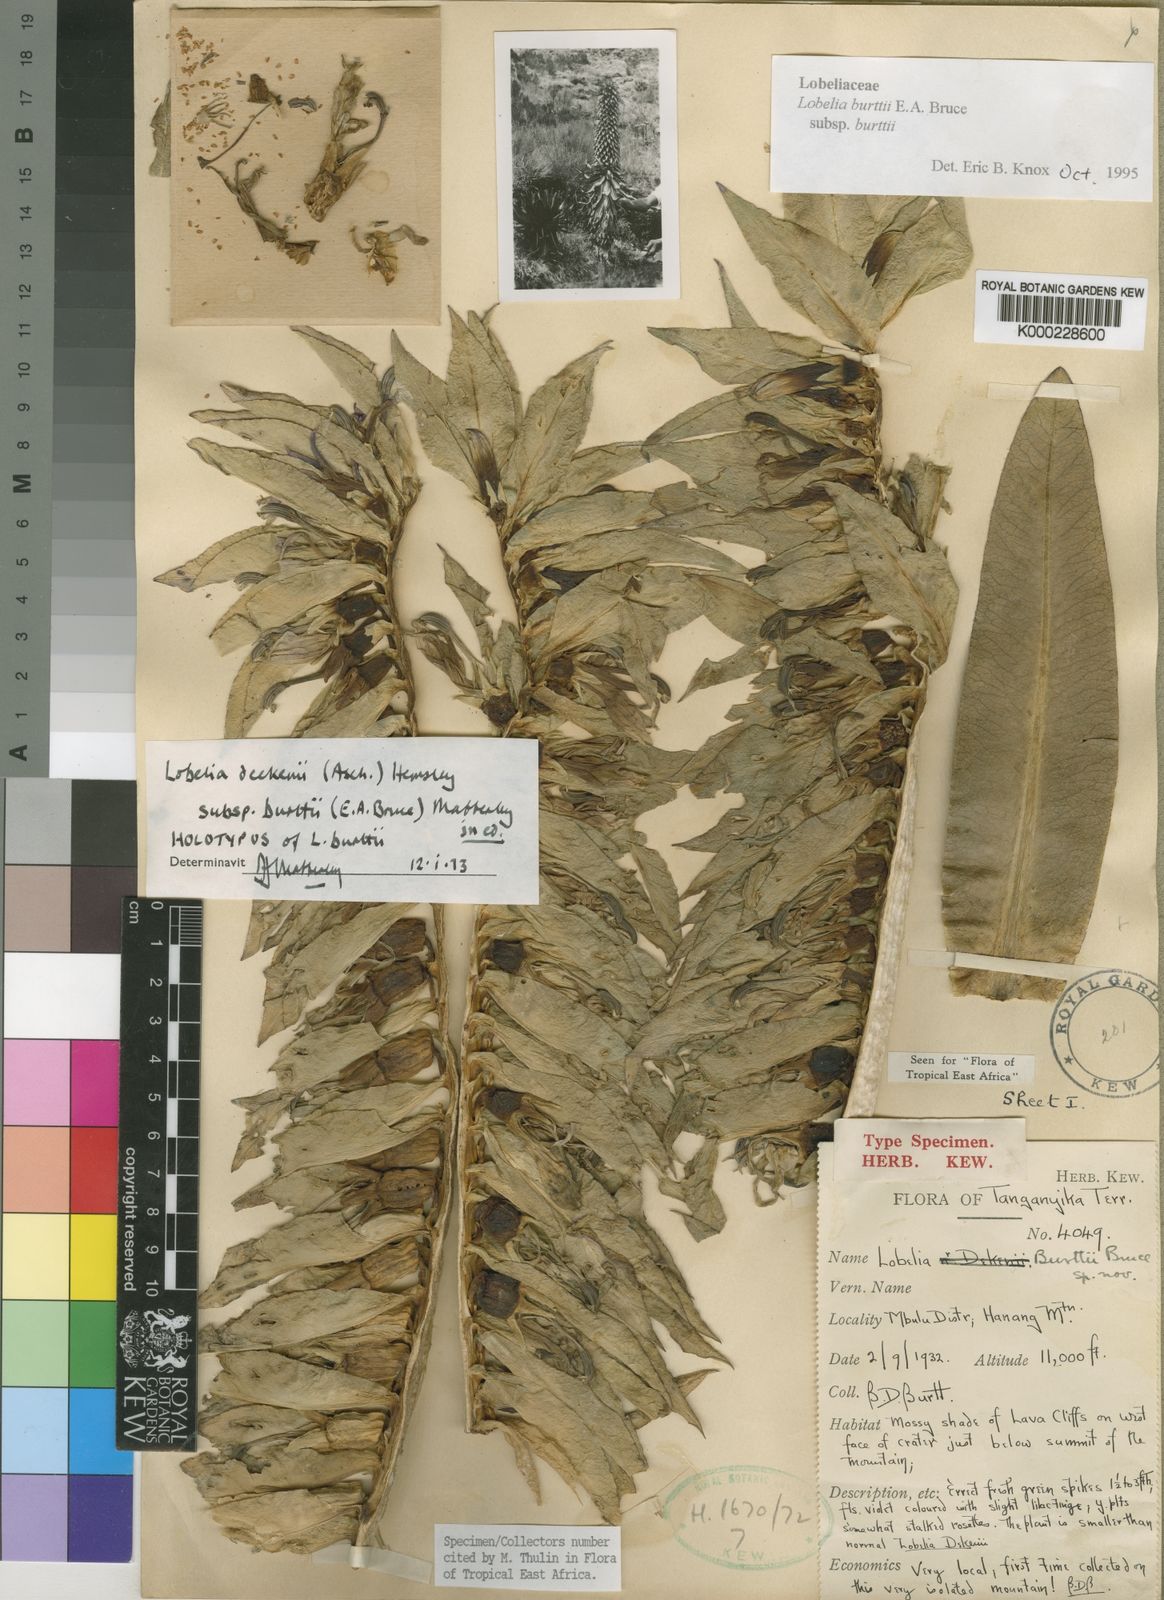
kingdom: Plantae
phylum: Tracheophyta
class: Magnoliopsida
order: Asterales
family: Campanulaceae
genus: Lobelia
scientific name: Lobelia burttii
